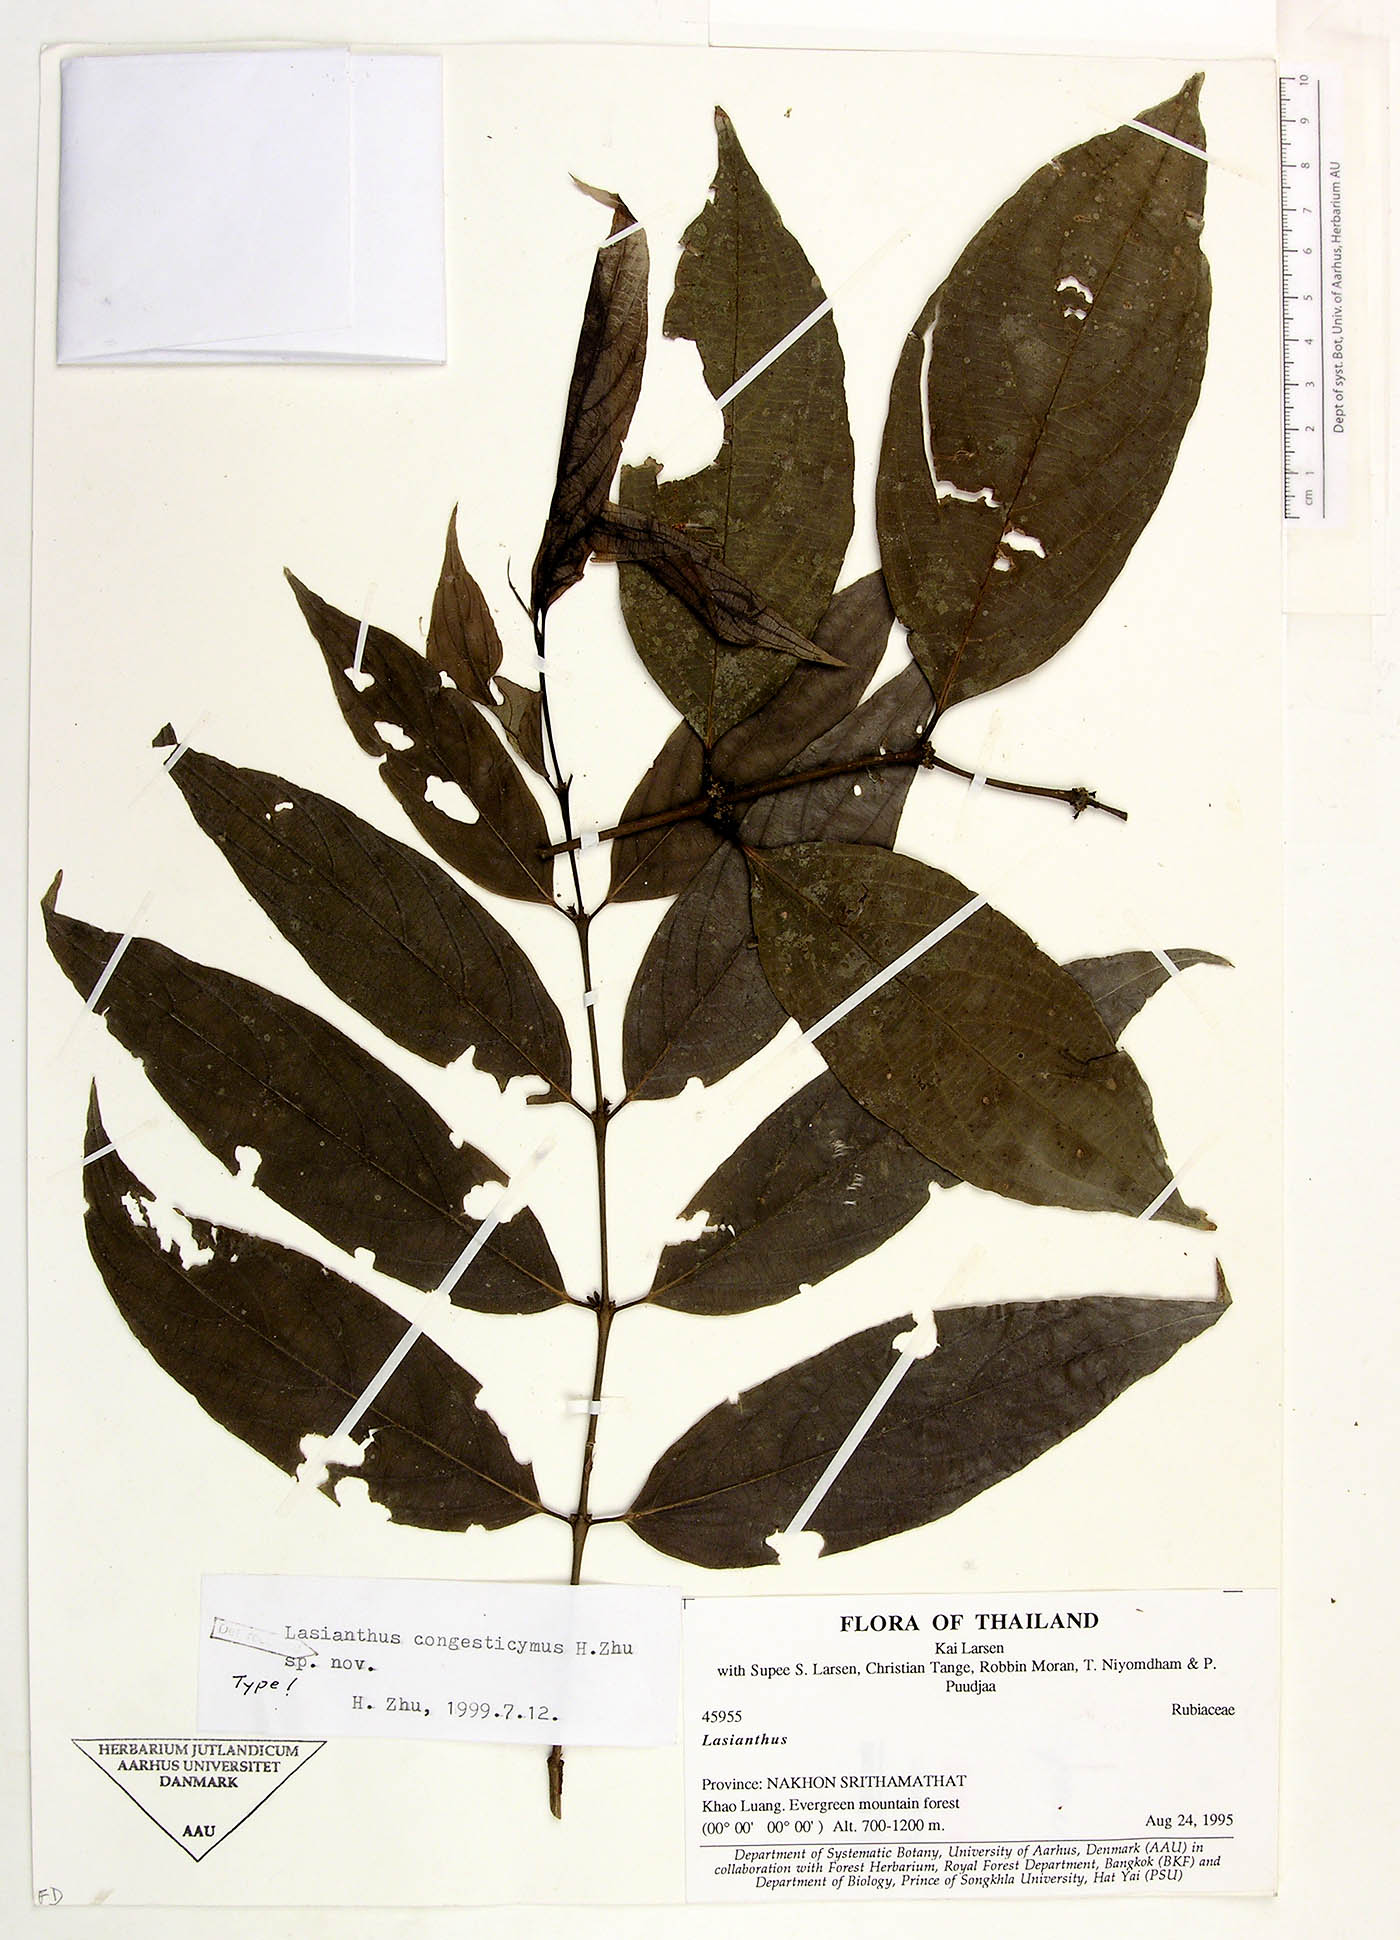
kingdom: Plantae
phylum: Tracheophyta
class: Magnoliopsida
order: Gentianales
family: Rubiaceae
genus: Lasianthus
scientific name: Lasianthus congesticymus
